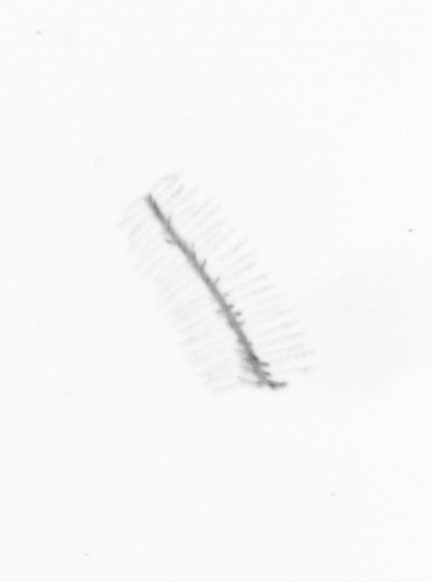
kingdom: Chromista
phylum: Ochrophyta
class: Bacillariophyceae
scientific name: Bacillariophyceae
